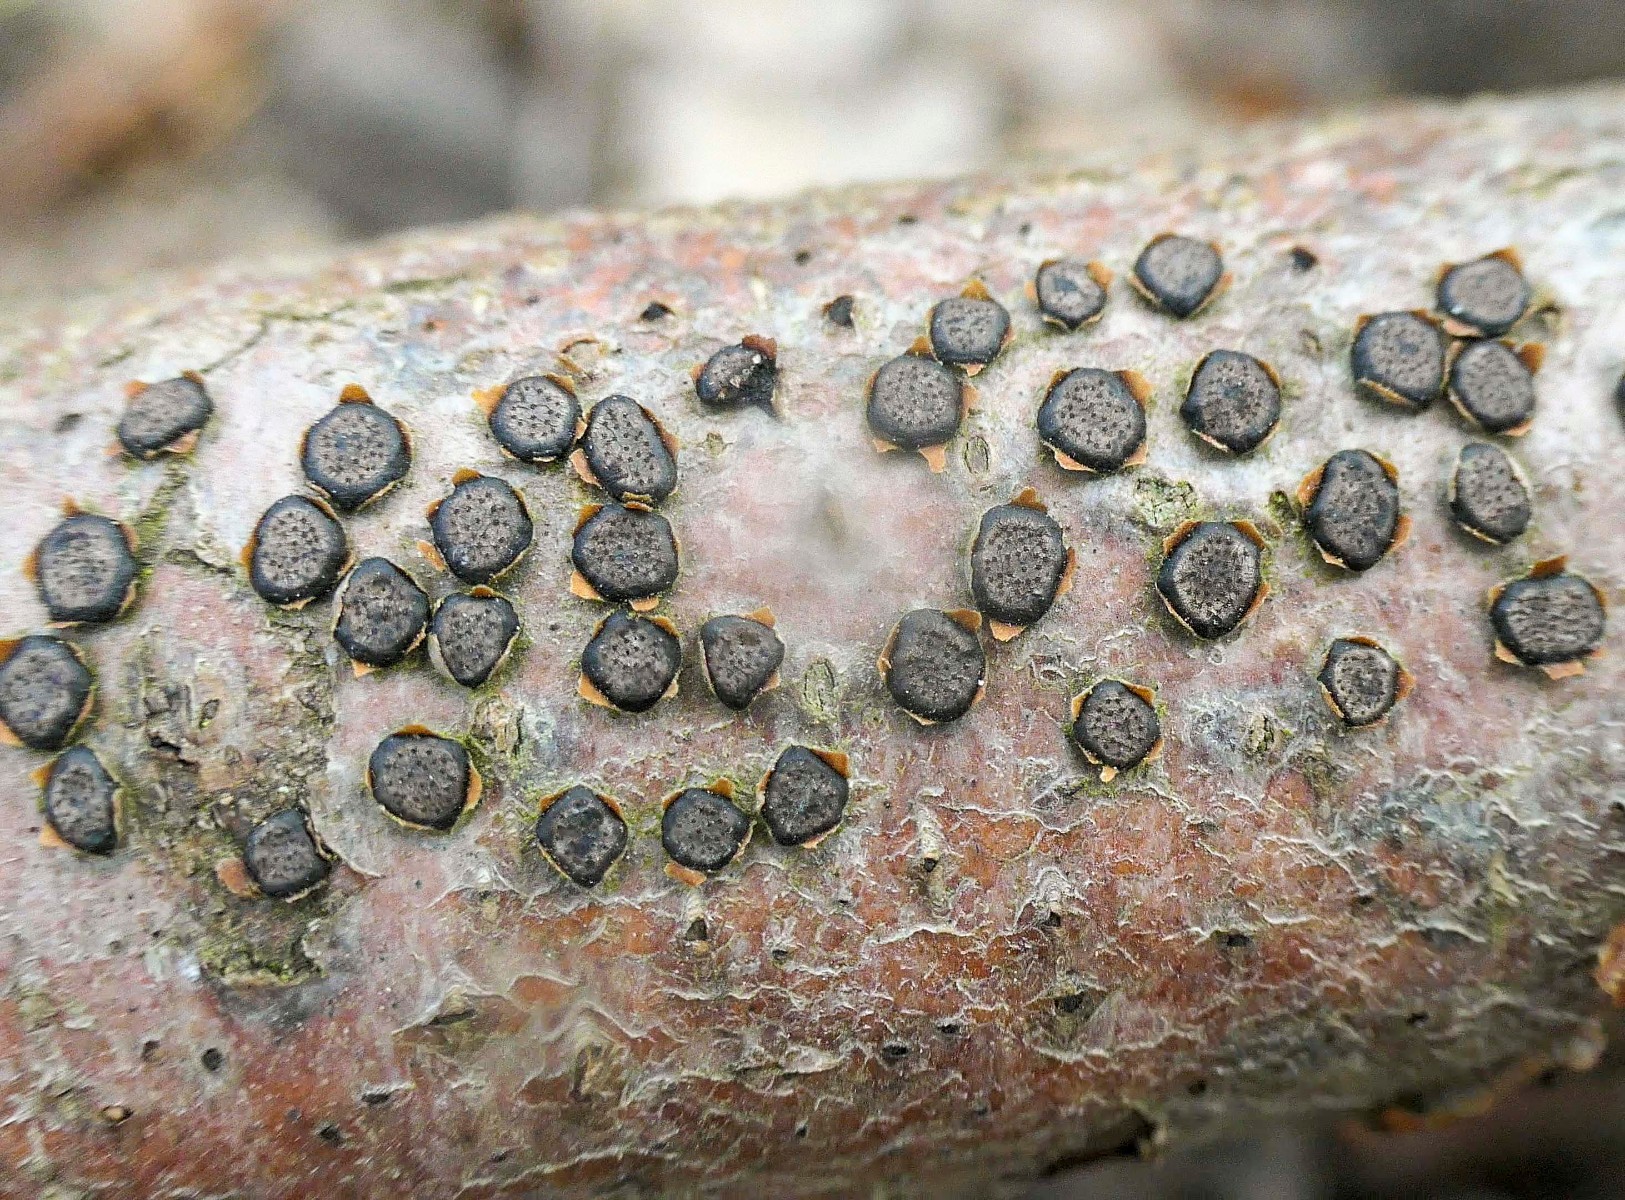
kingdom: Fungi
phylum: Ascomycota
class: Sordariomycetes
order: Xylariales
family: Diatrypaceae
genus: Diatrype
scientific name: Diatrype disciformis
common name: kant-kulskorpe
